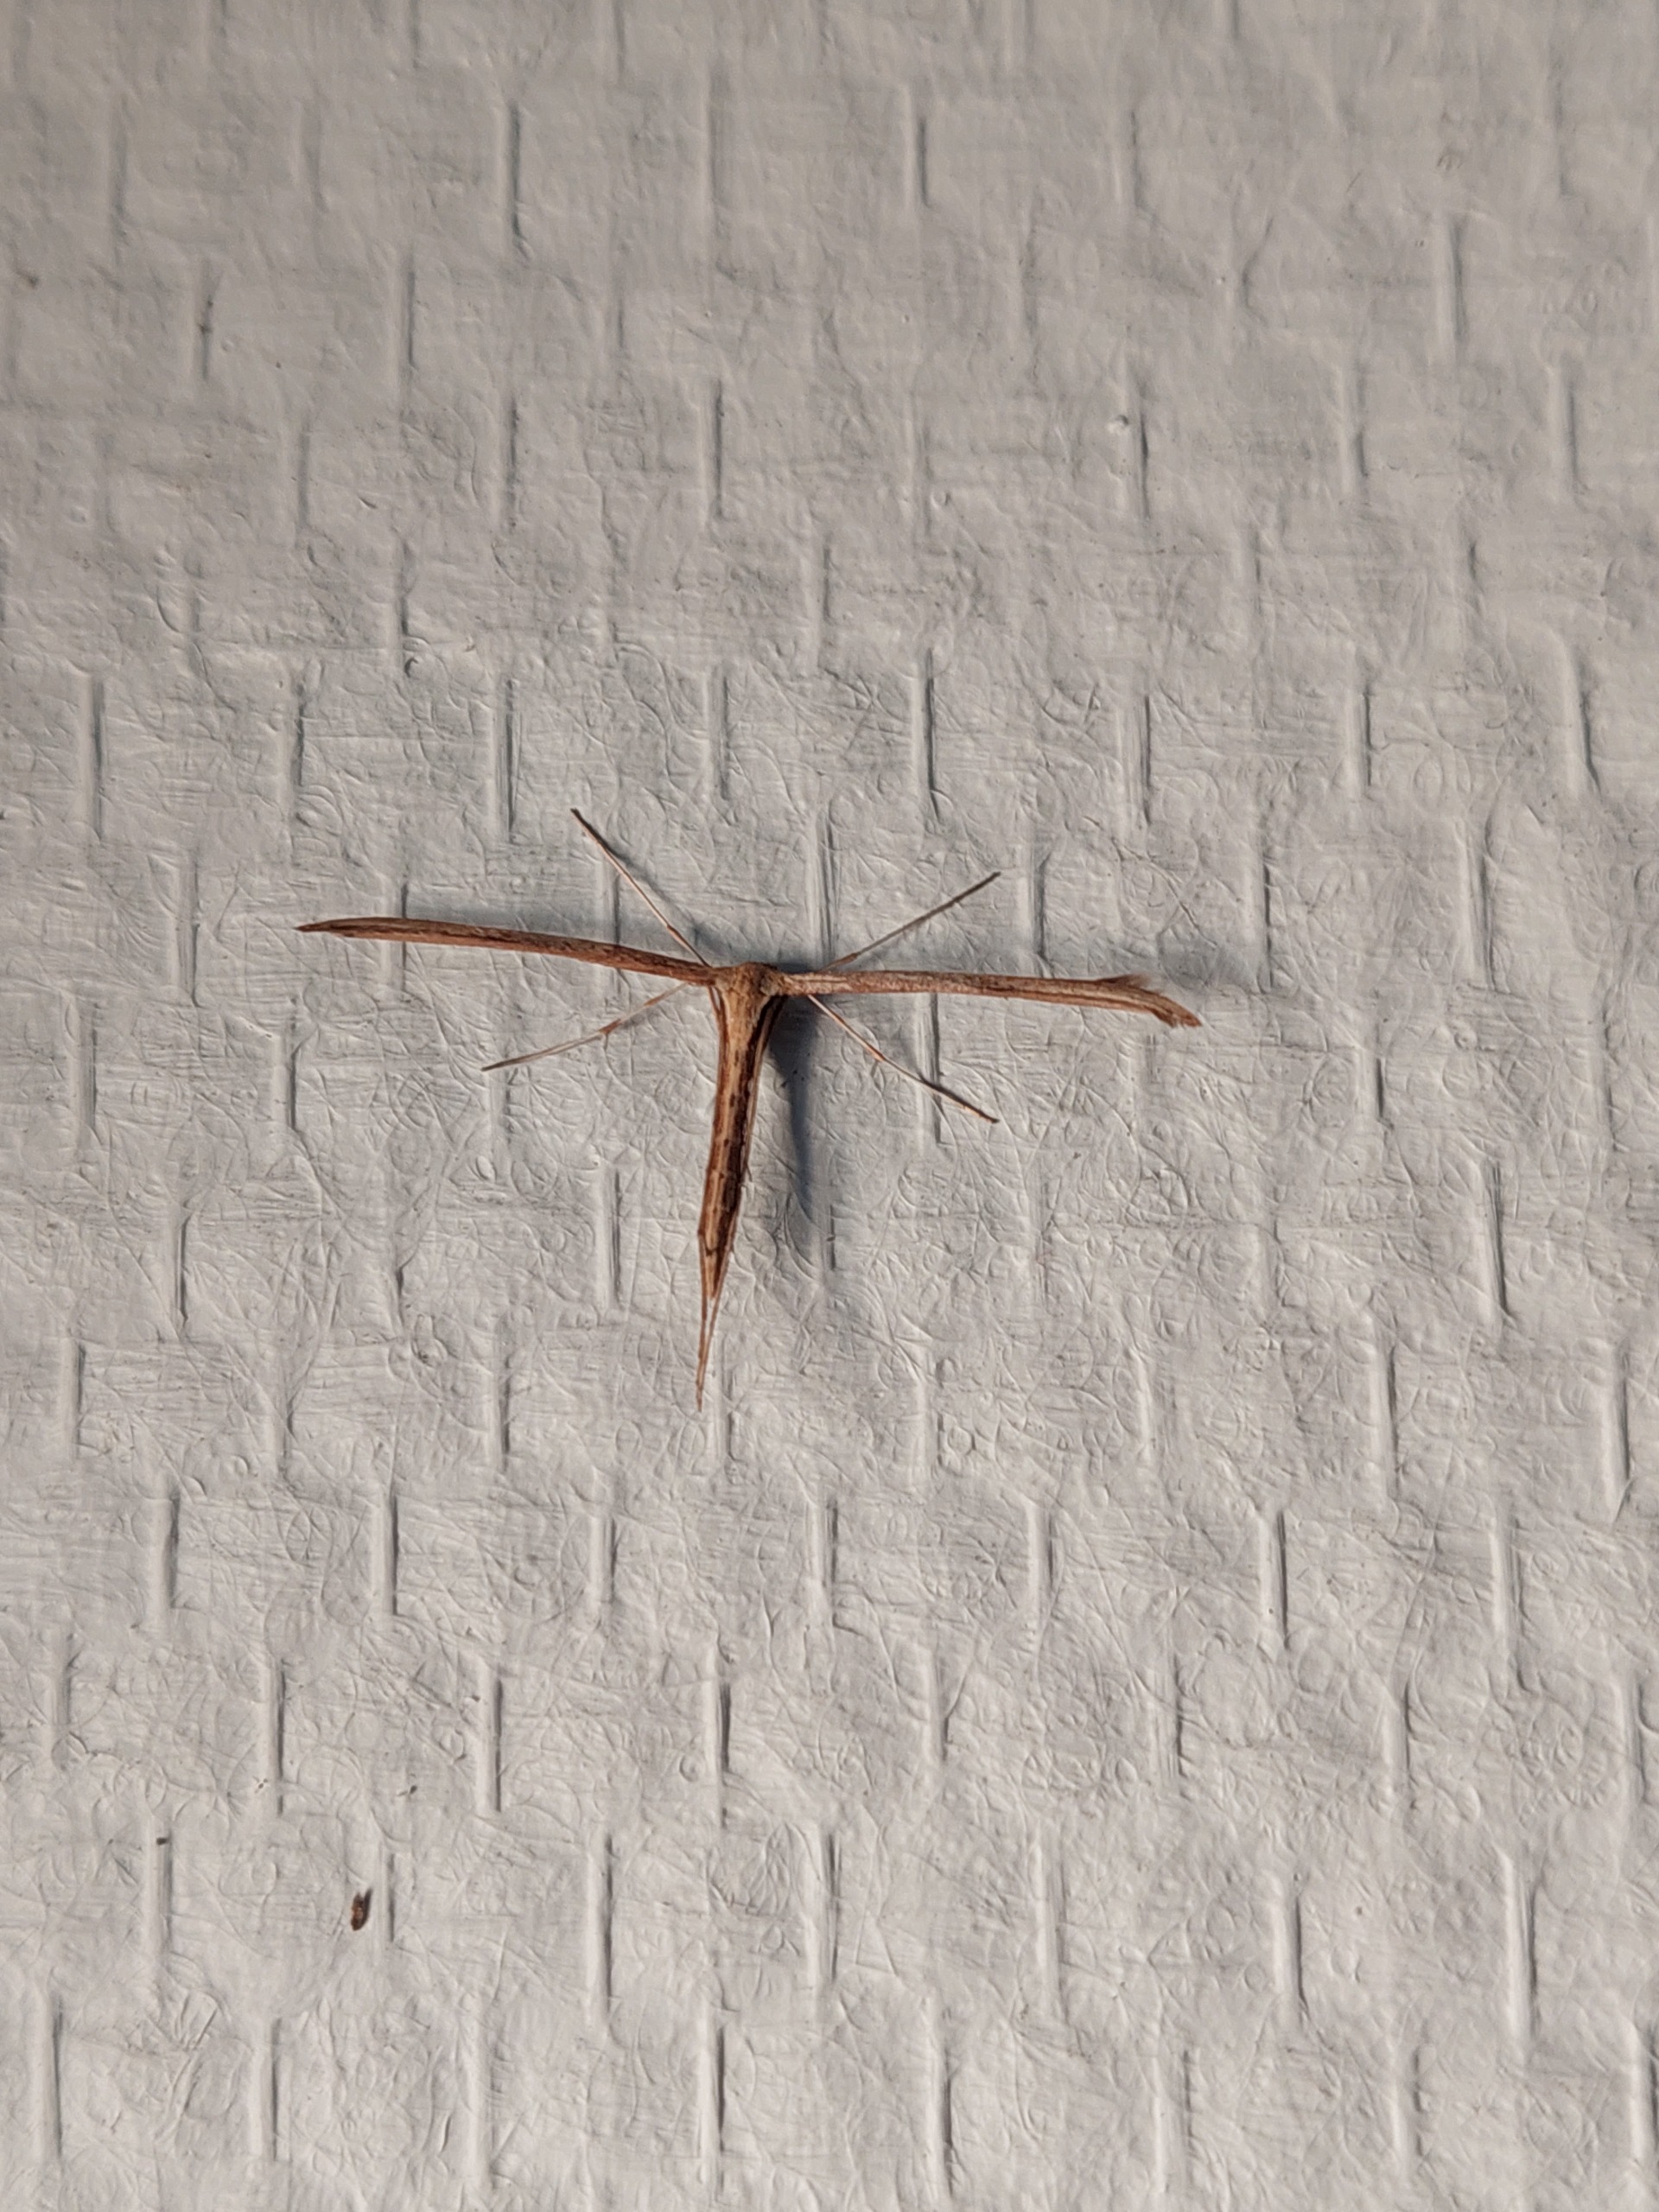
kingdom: Animalia
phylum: Arthropoda
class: Insecta
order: Lepidoptera
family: Pterophoridae
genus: Emmelina
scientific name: Emmelina monodactyla
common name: Snerlefjermøl
